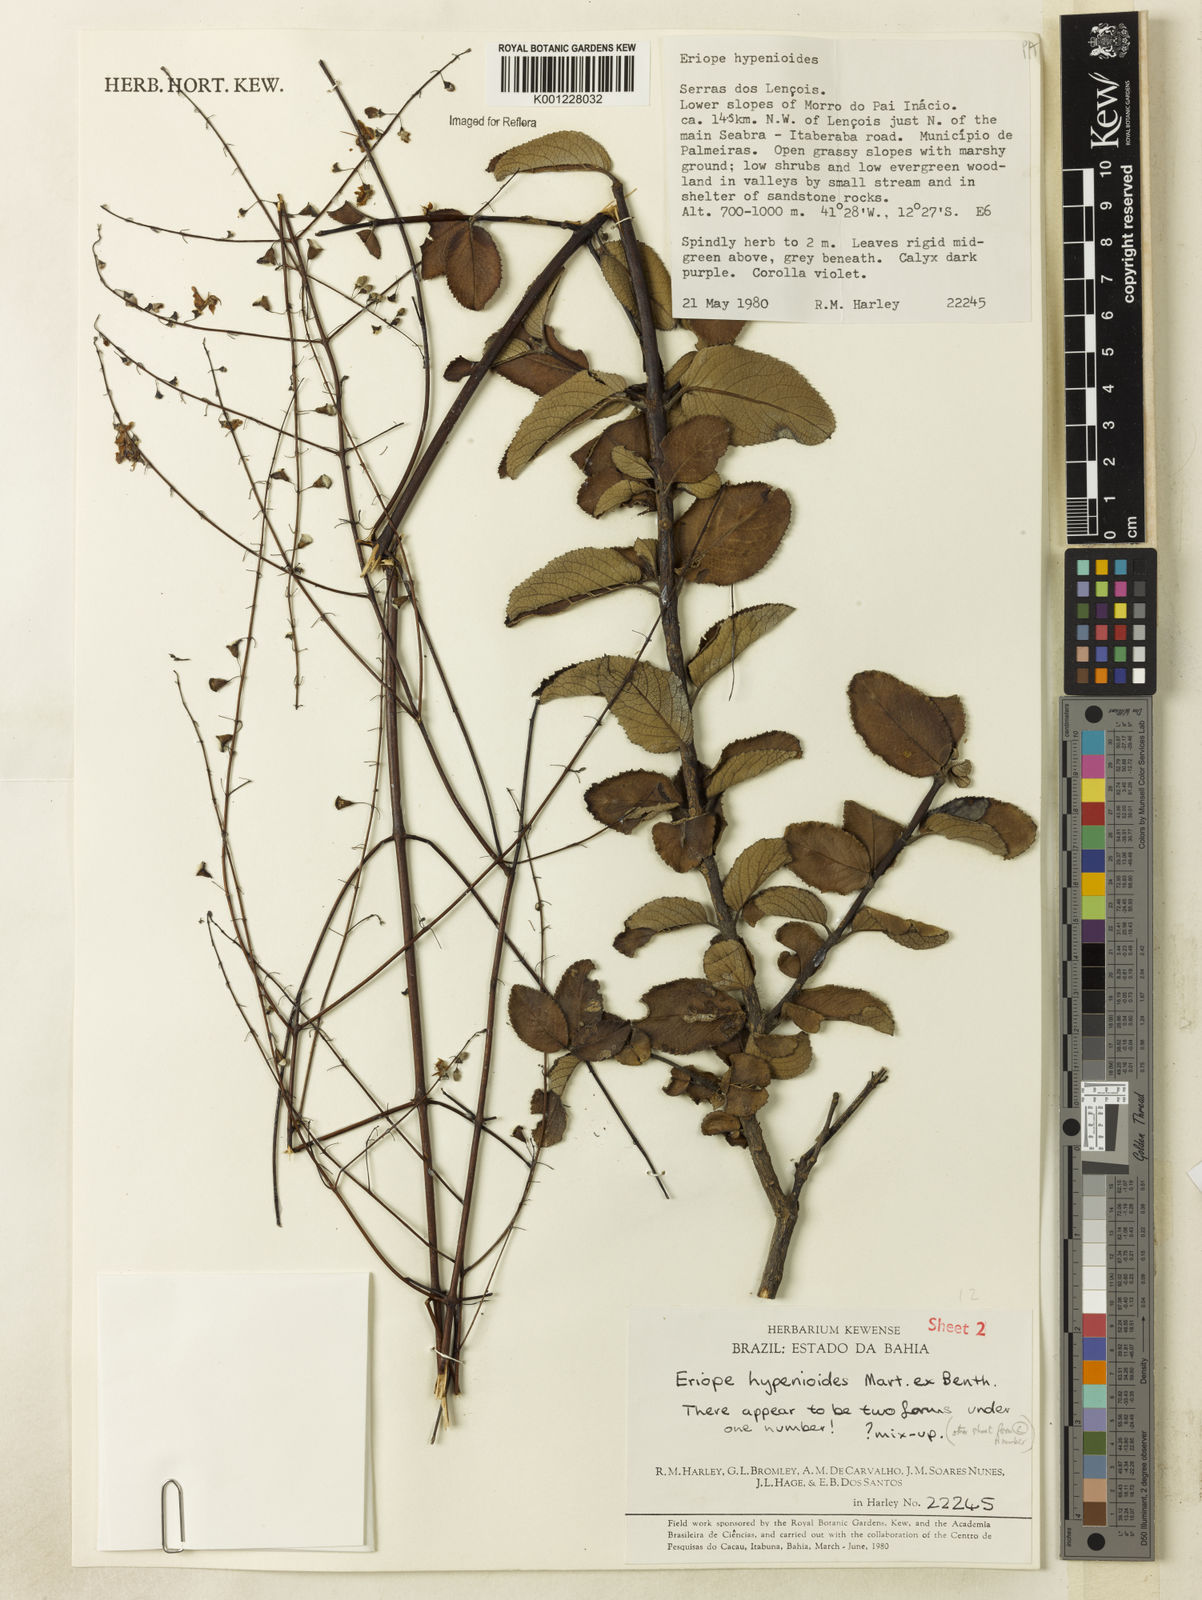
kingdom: Plantae
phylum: Tracheophyta
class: Magnoliopsida
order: Lamiales
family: Lamiaceae
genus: Eriope
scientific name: Eriope hypenioides
